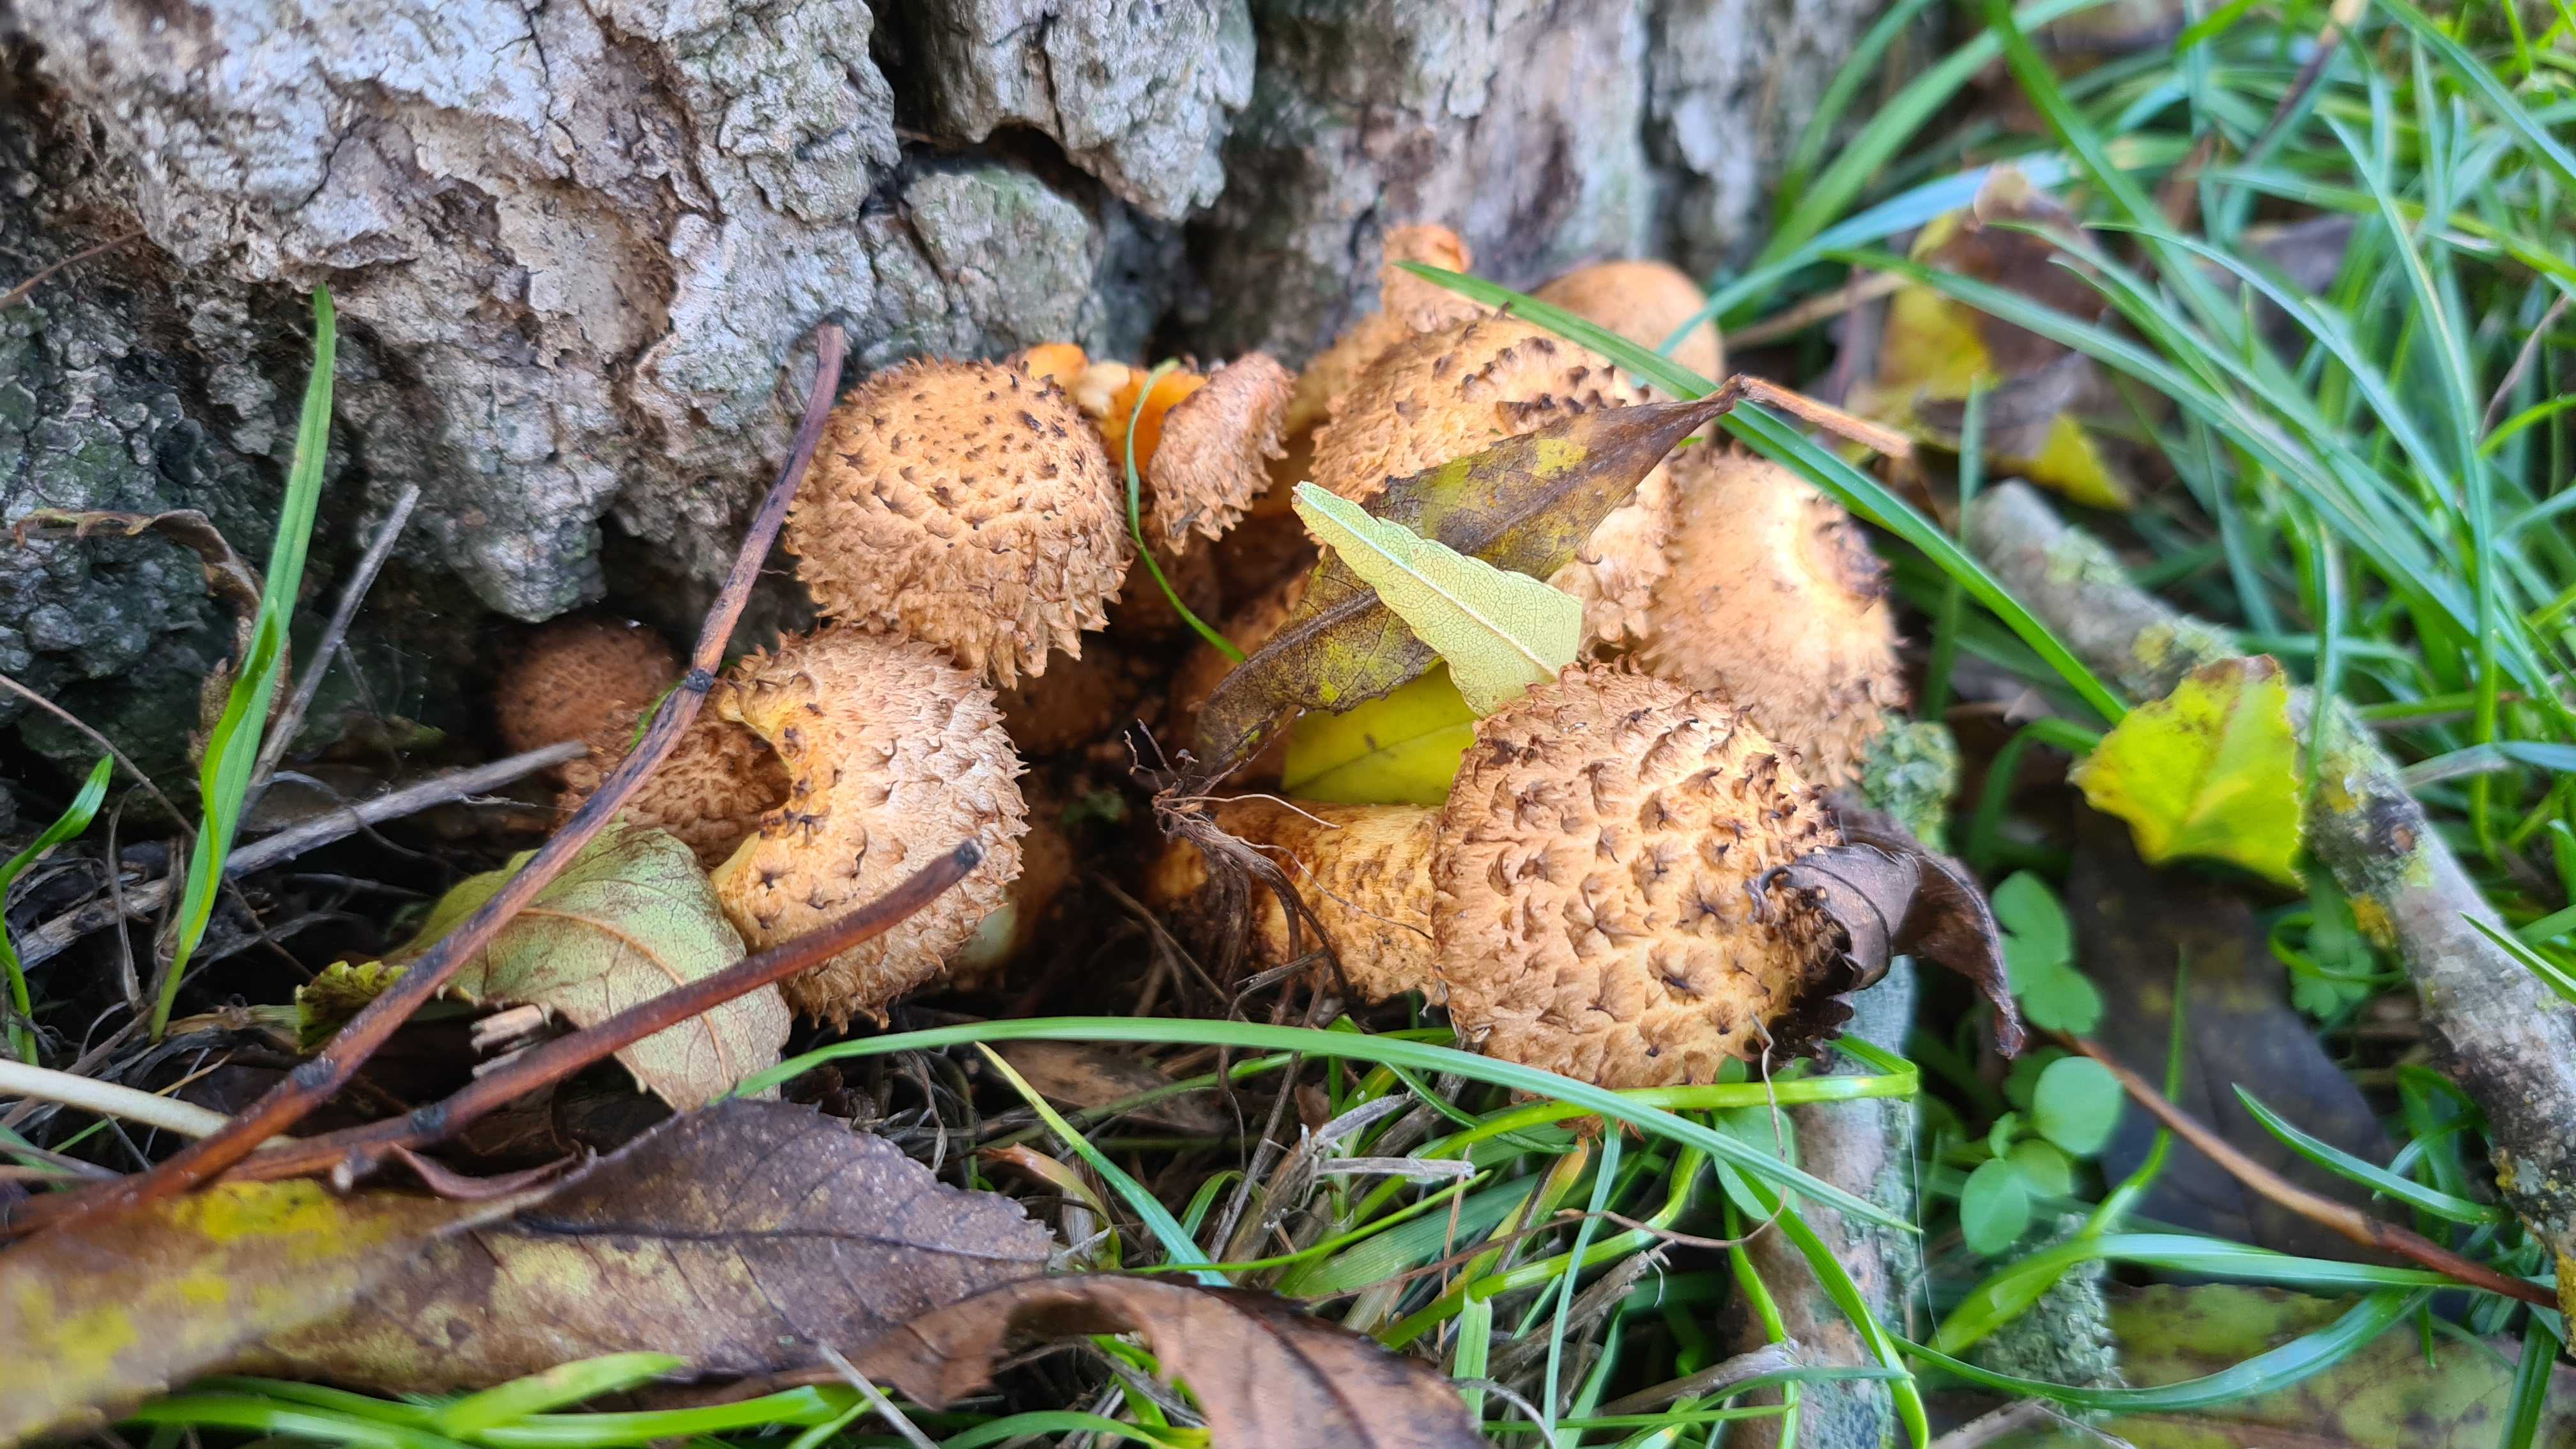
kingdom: Fungi
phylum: Basidiomycota
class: Agaricomycetes
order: Agaricales
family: Strophariaceae
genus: Pholiota
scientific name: Pholiota squarrosa
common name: krumskællet skælhat
